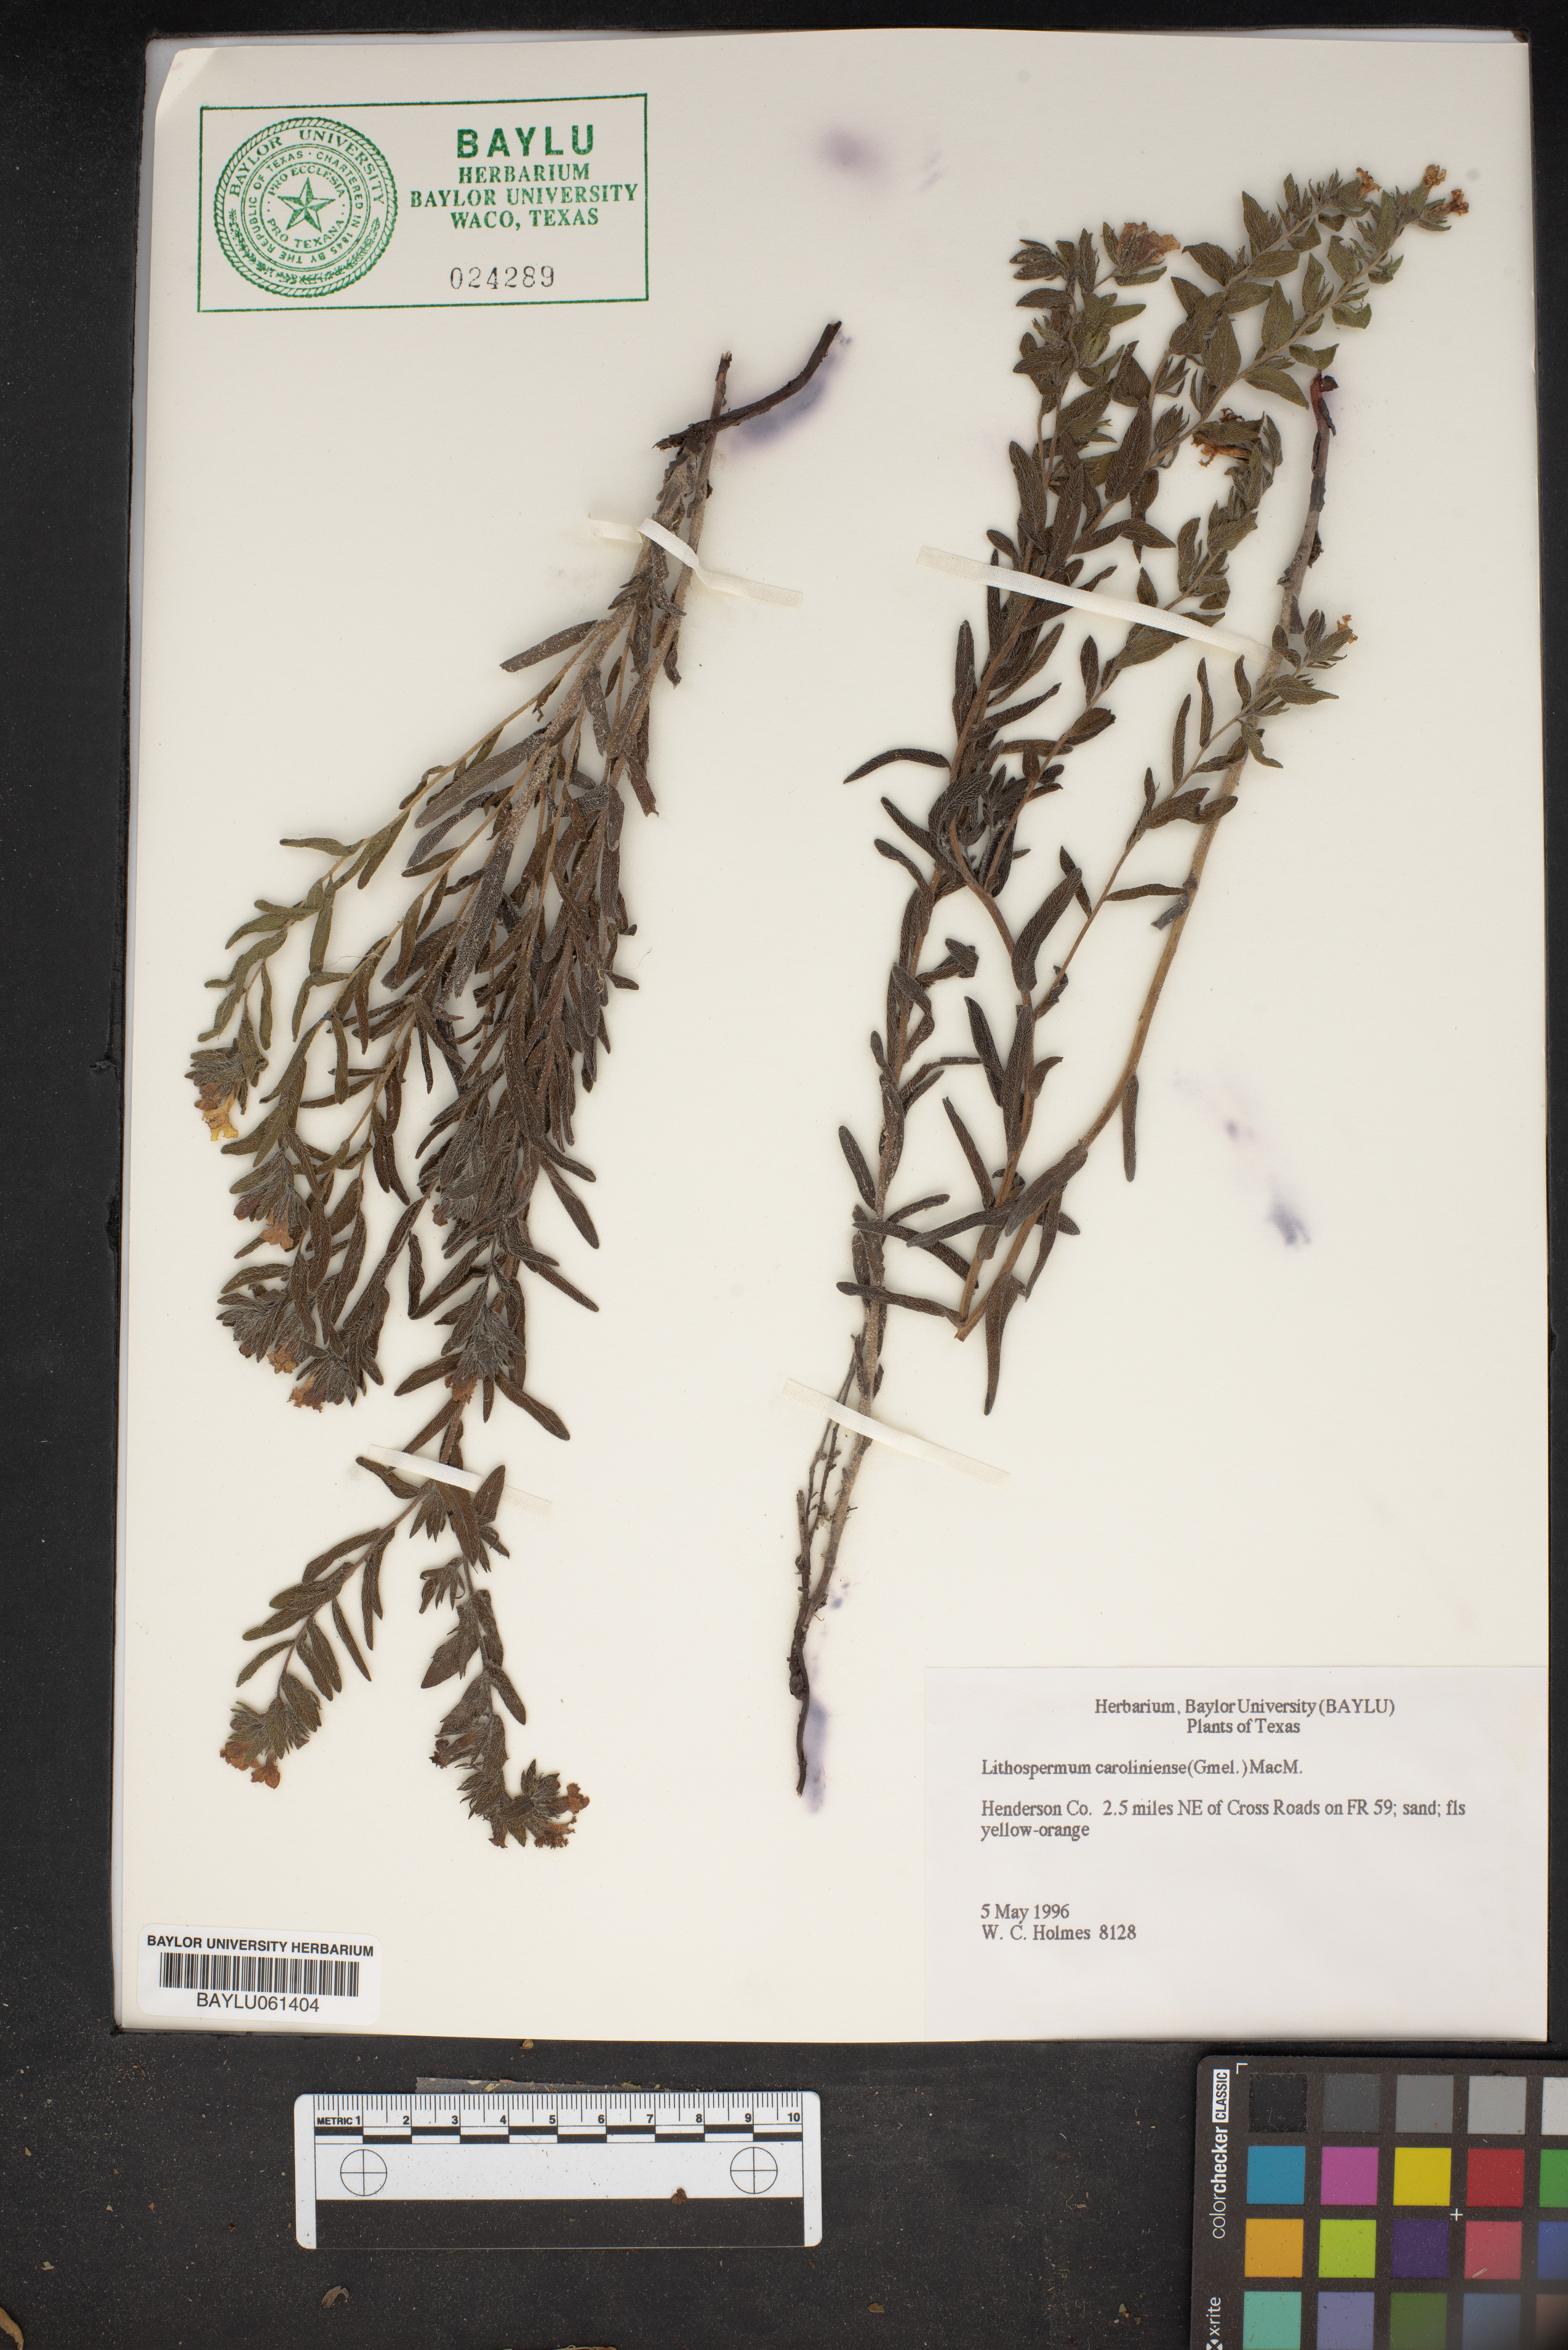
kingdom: Plantae
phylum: Tracheophyta
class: Magnoliopsida
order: Boraginales
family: Boraginaceae
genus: Lithospermum
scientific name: Lithospermum caroliniense
